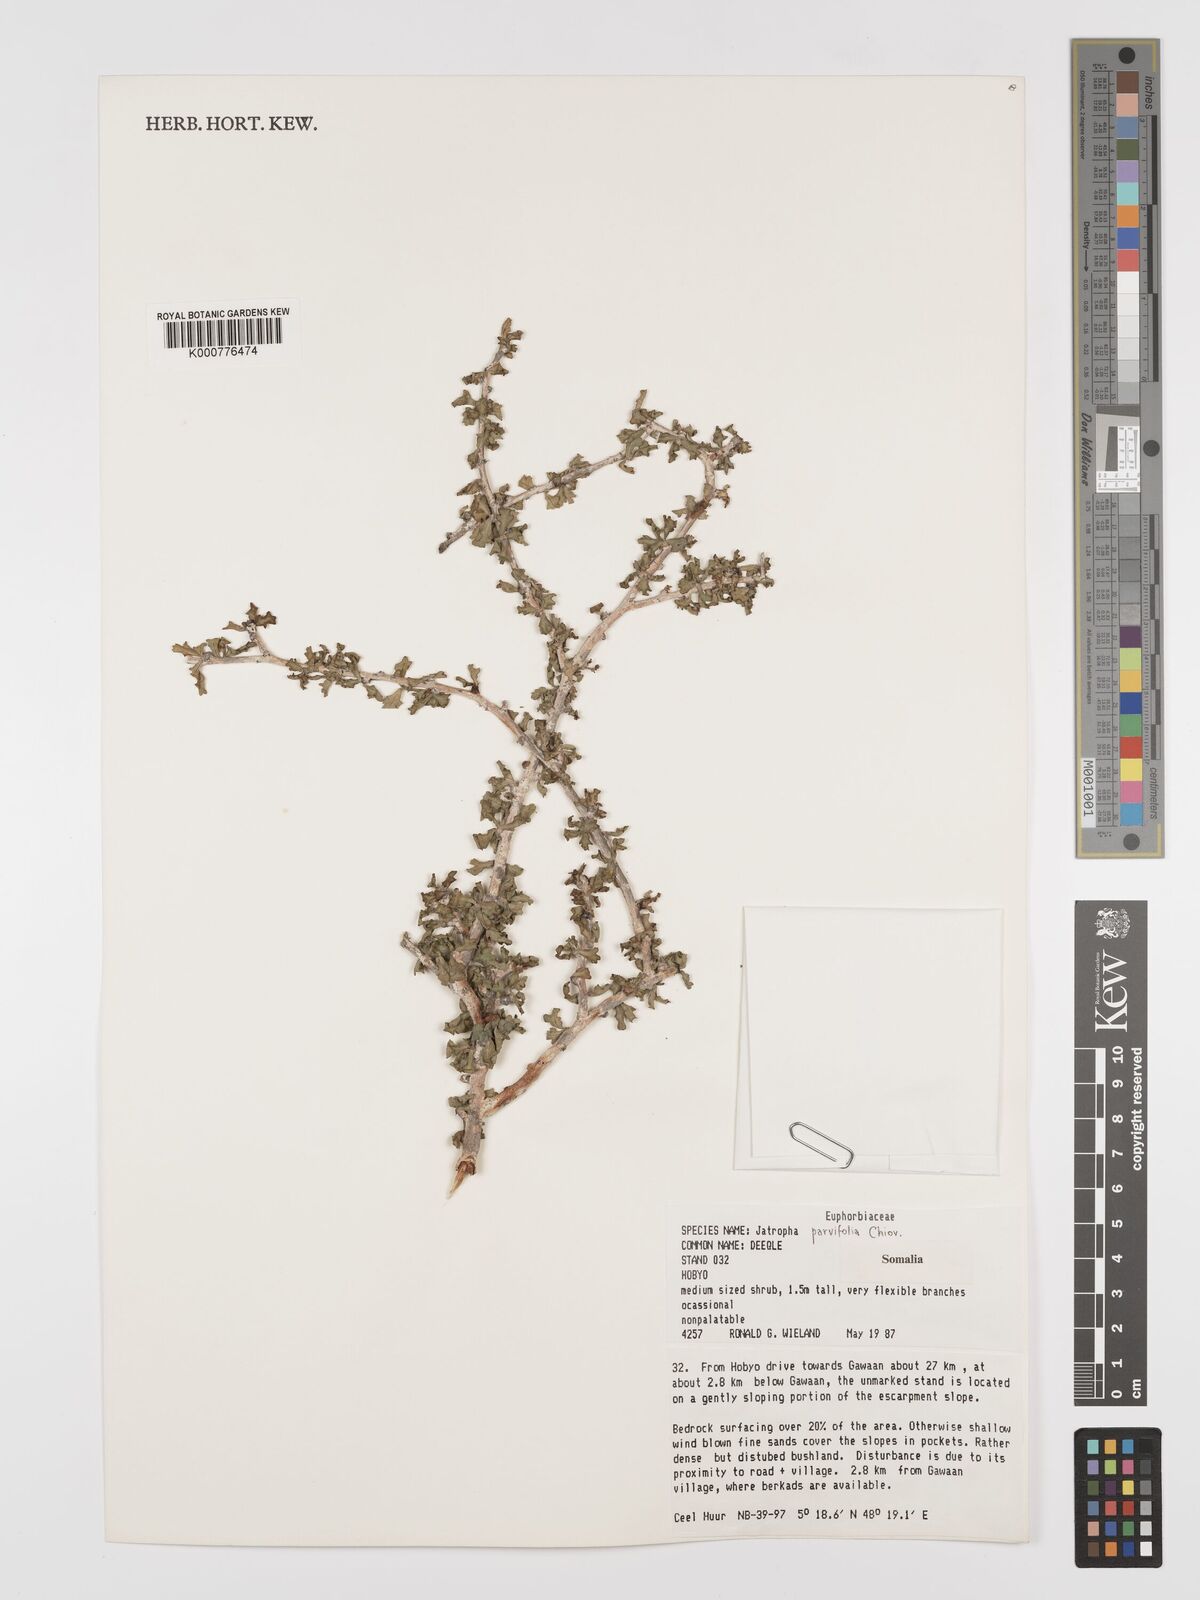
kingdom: Plantae
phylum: Tracheophyta
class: Magnoliopsida
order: Malpighiales
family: Euphorbiaceae
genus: Jatropha
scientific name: Jatropha rivae
